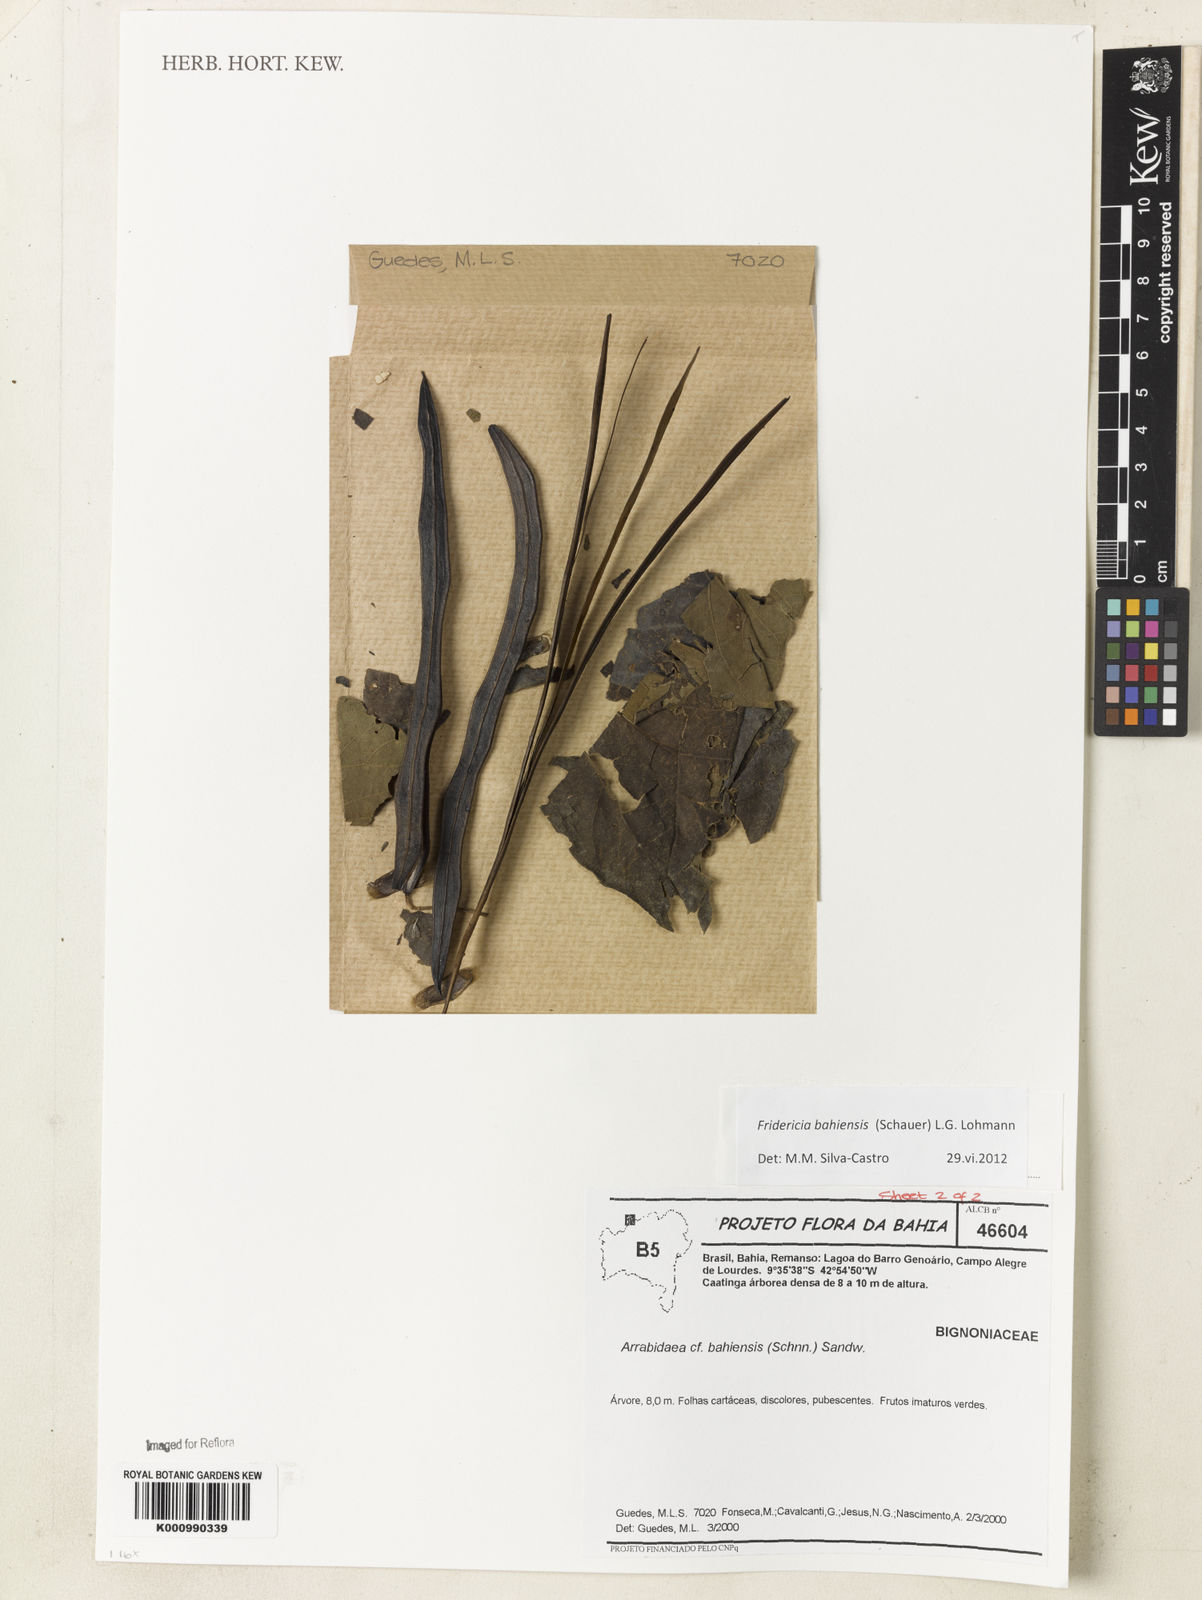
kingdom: Plantae
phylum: Tracheophyta
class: Magnoliopsida
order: Lamiales
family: Bignoniaceae
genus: Fridericia
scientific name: Fridericia bahiensis
